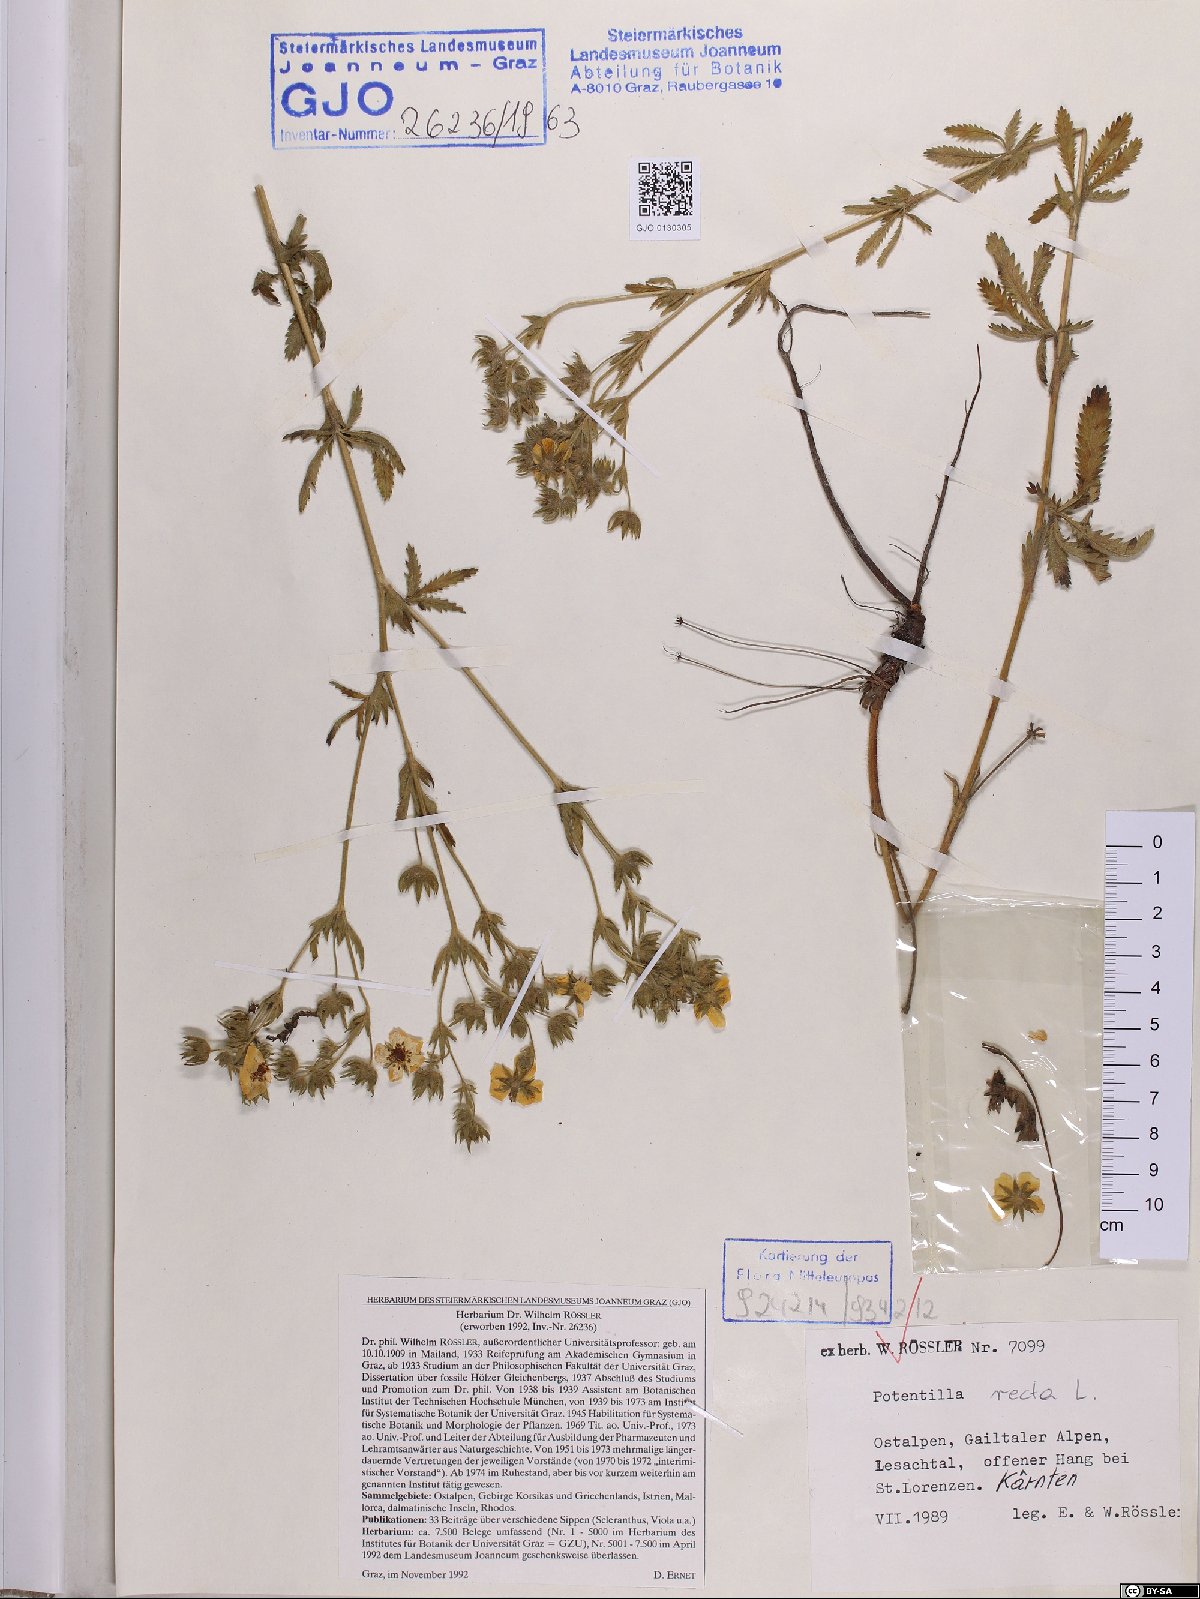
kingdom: Plantae
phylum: Tracheophyta
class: Magnoliopsida
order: Rosales
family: Rosaceae
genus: Potentilla
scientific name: Potentilla recta
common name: Sulphur cinquefoil
